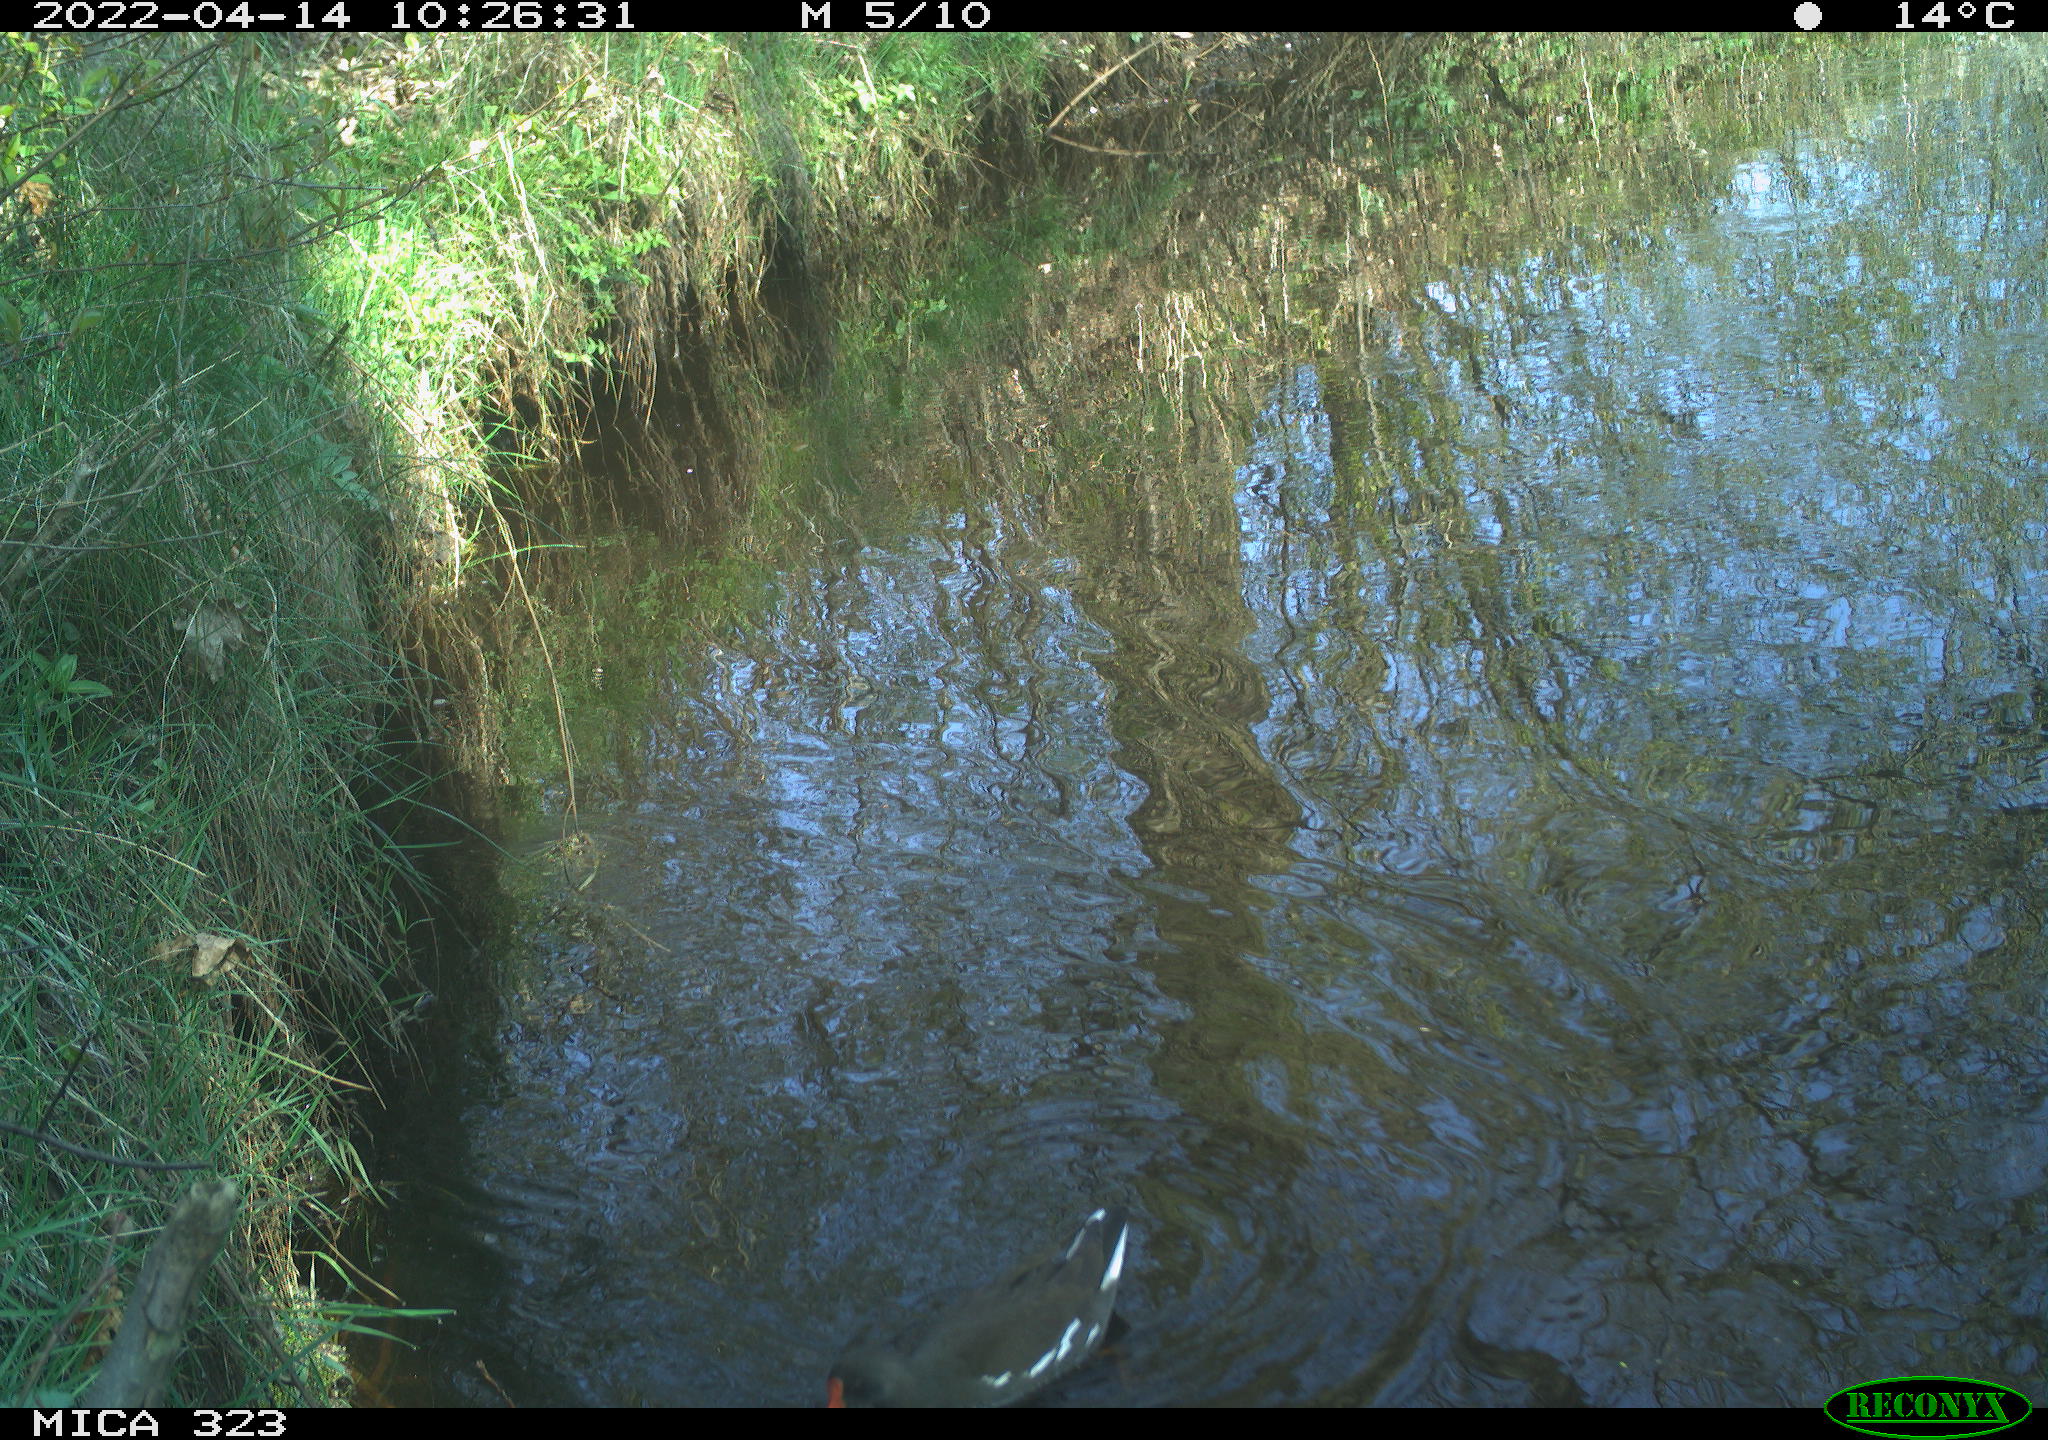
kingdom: Animalia
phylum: Chordata
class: Aves
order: Gruiformes
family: Rallidae
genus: Gallinula
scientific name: Gallinula chloropus
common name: Common moorhen
